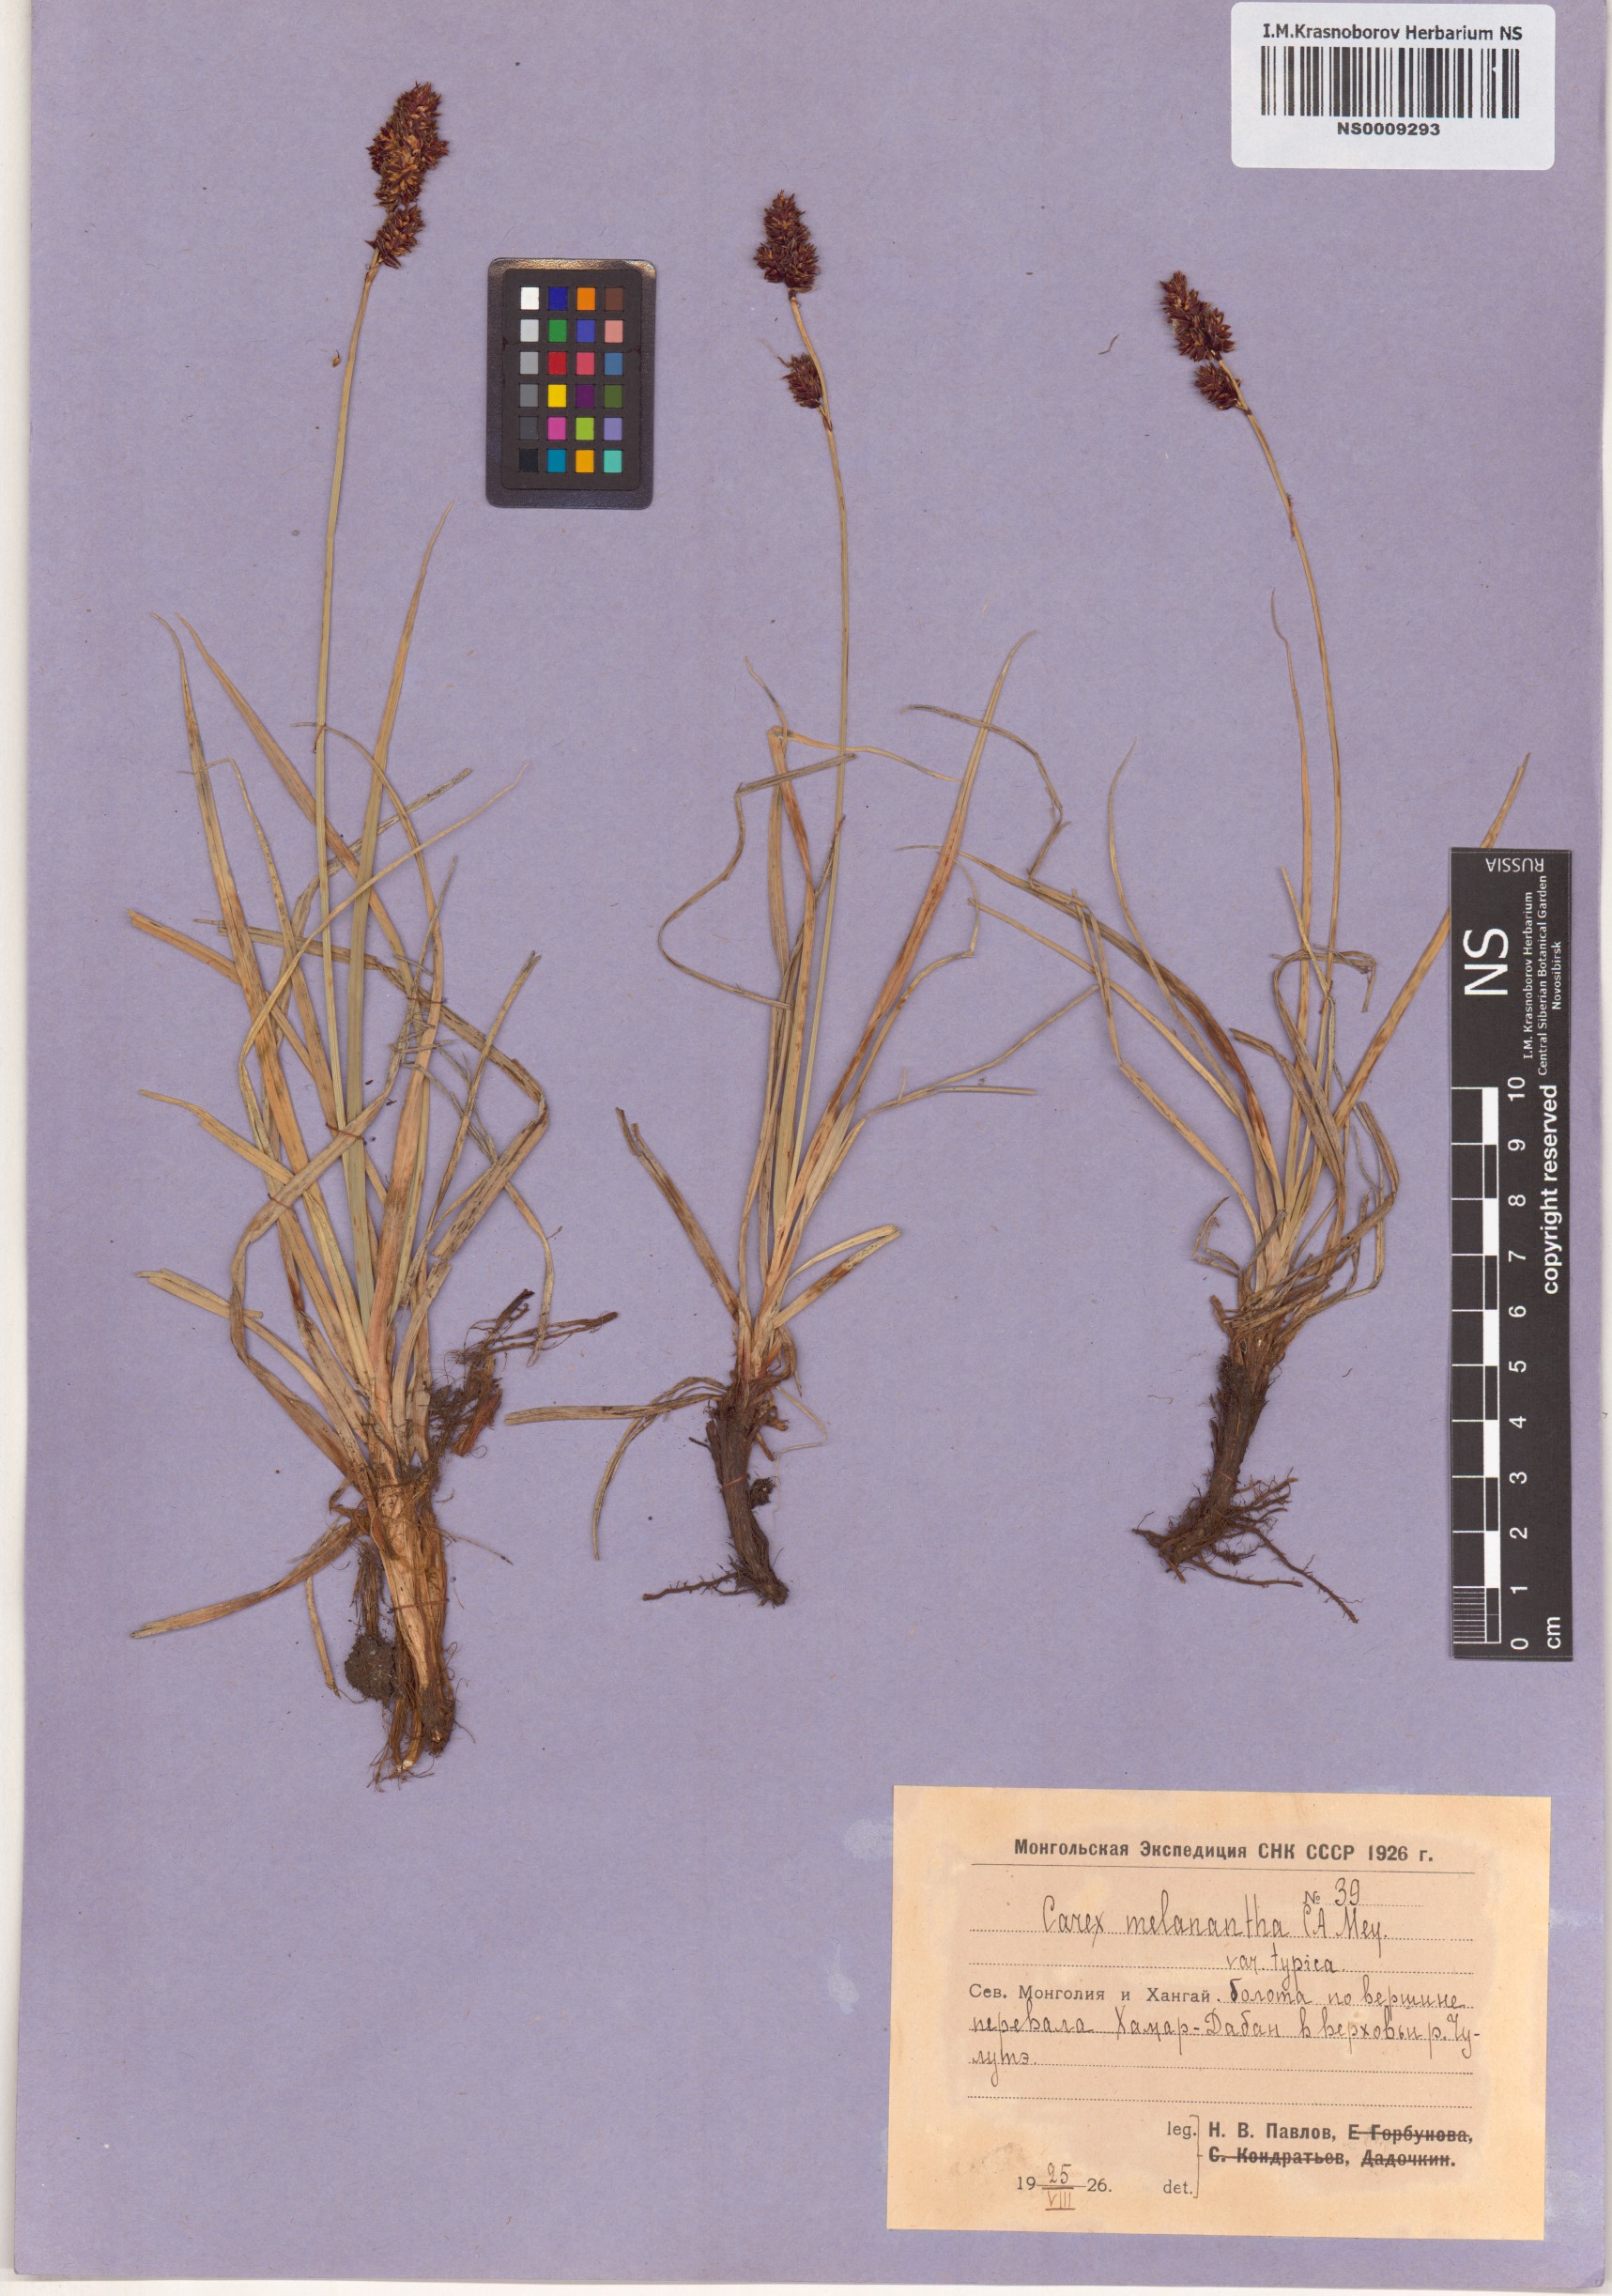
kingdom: Plantae
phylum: Tracheophyta
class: Liliopsida
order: Poales
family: Cyperaceae
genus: Carex
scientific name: Carex melanantha
